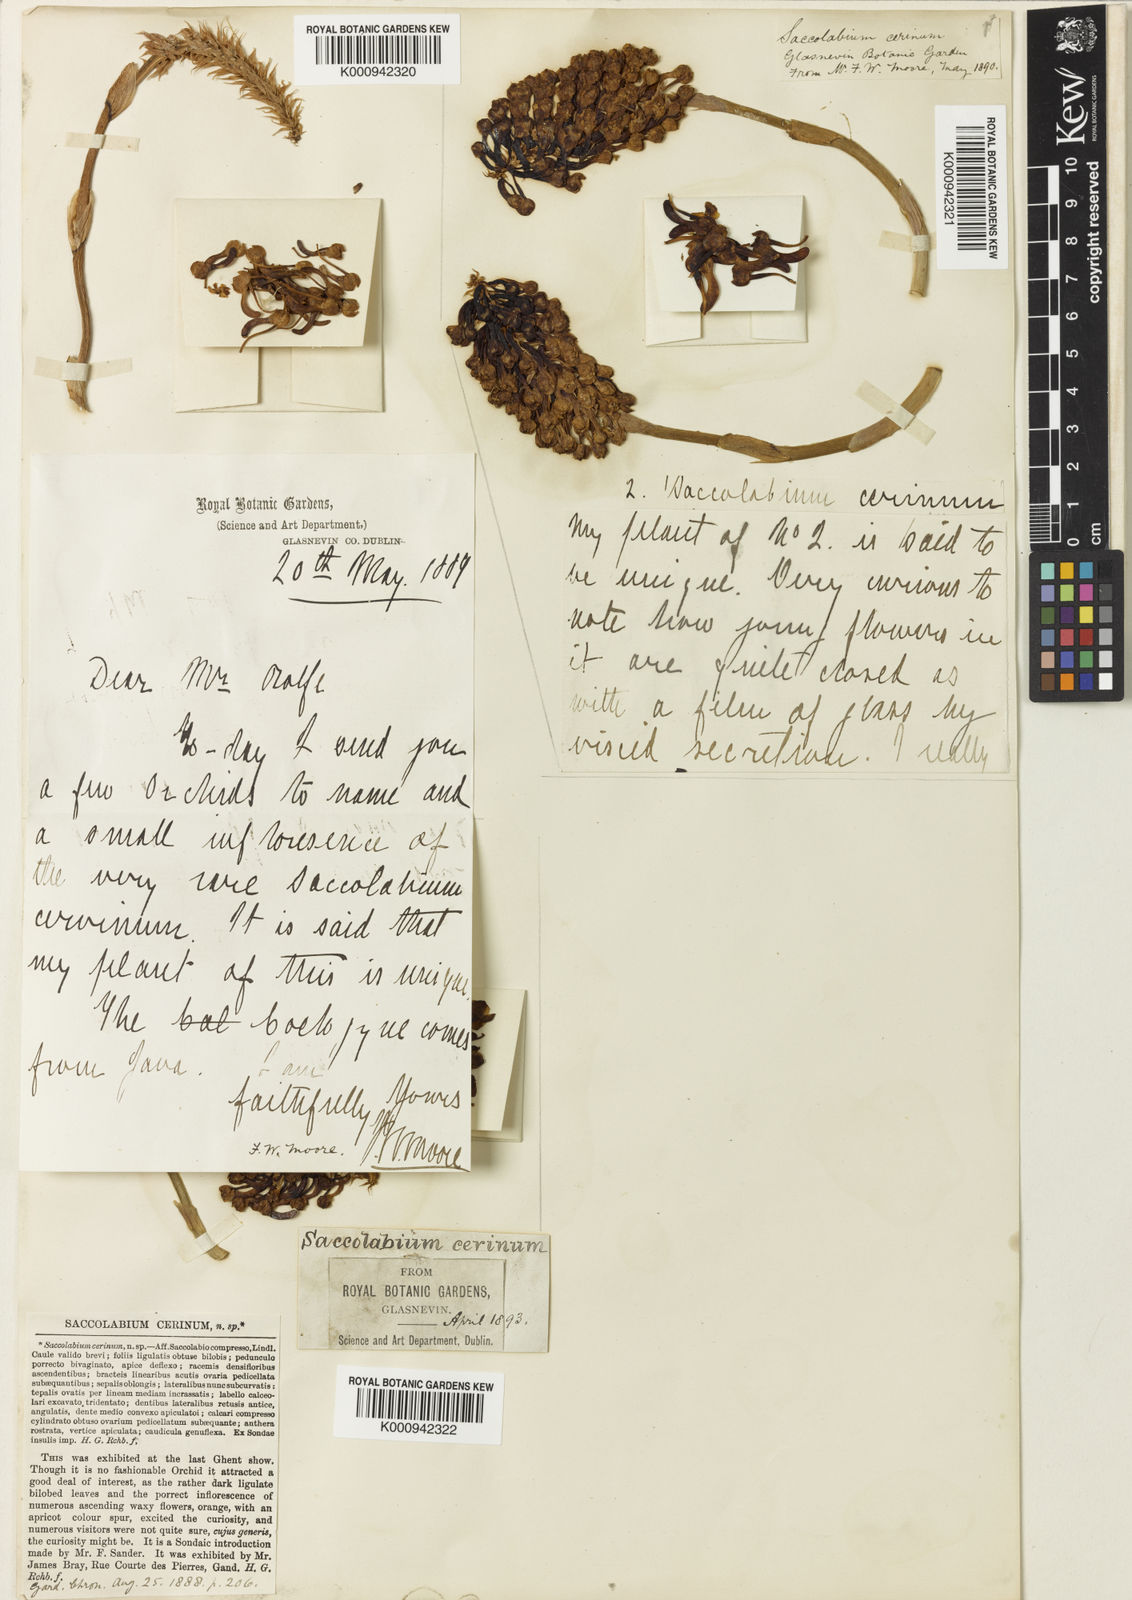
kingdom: Plantae
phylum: Tracheophyta
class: Liliopsida
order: Asparagales
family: Orchidaceae
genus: Robiquetia
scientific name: Robiquetia cerina
